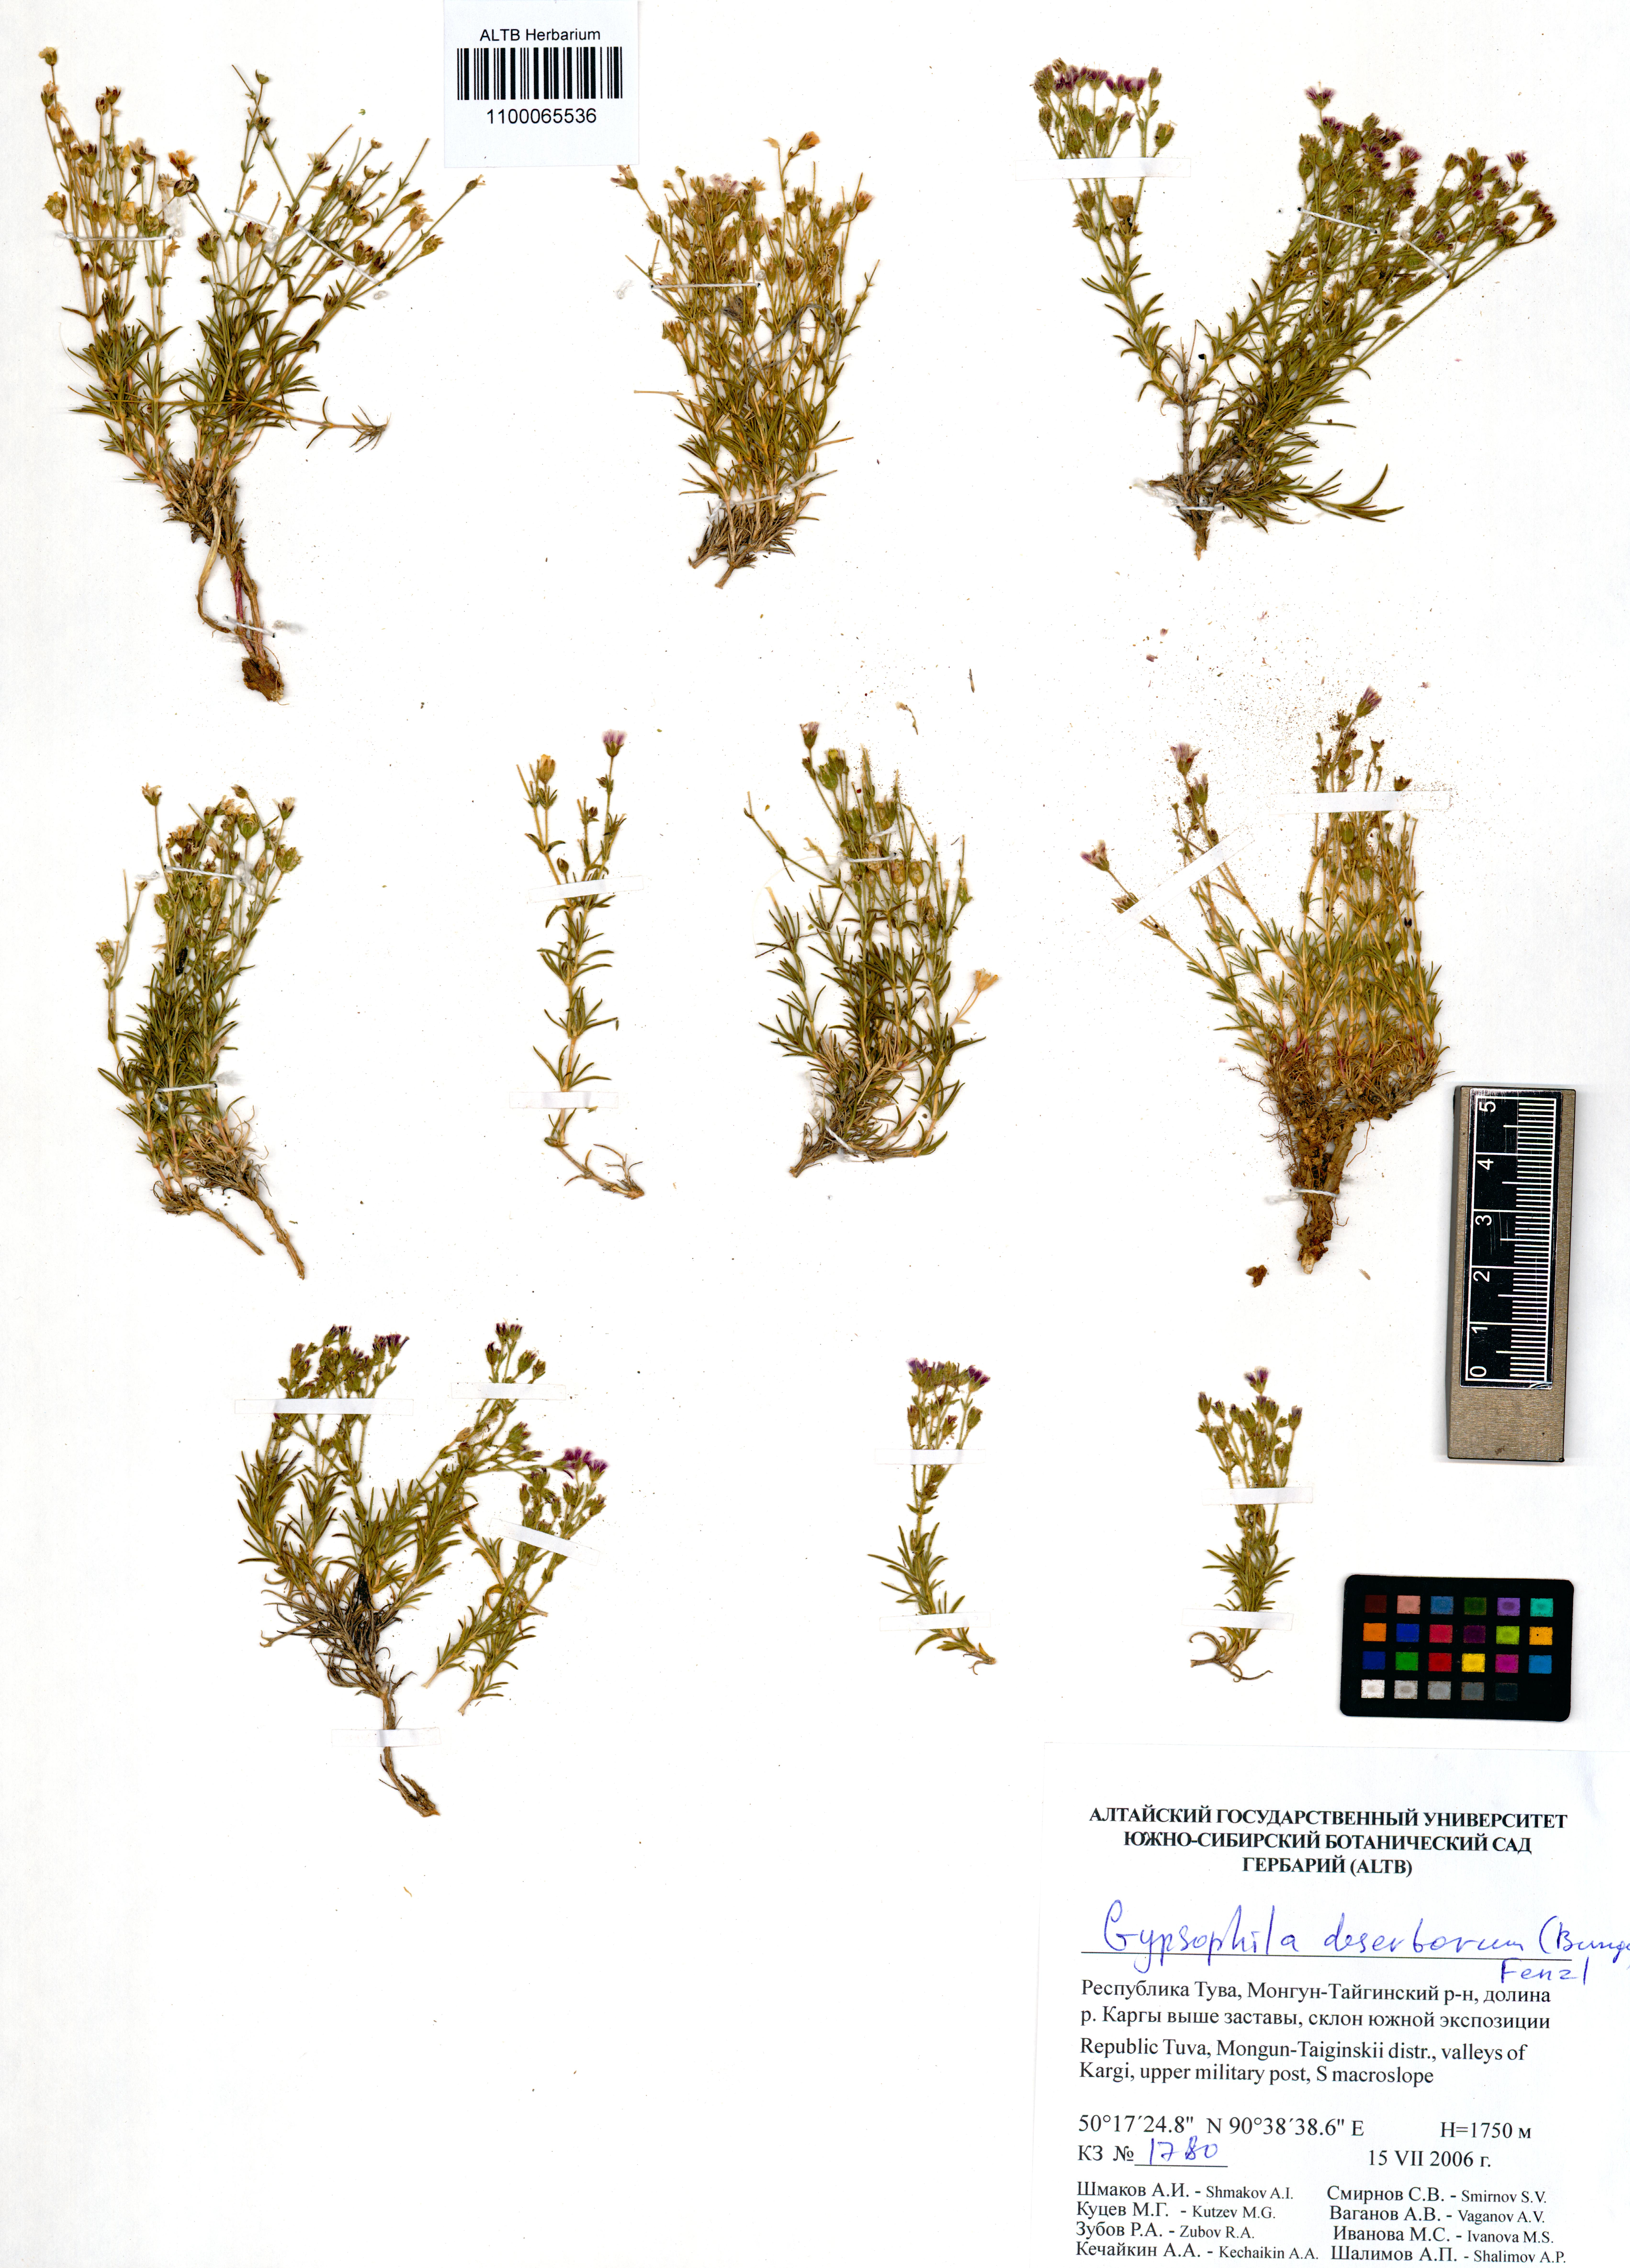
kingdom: Plantae
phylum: Tracheophyta
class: Magnoliopsida
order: Caryophyllales
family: Caryophyllaceae
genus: Heterochroa
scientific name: Heterochroa desertorum
